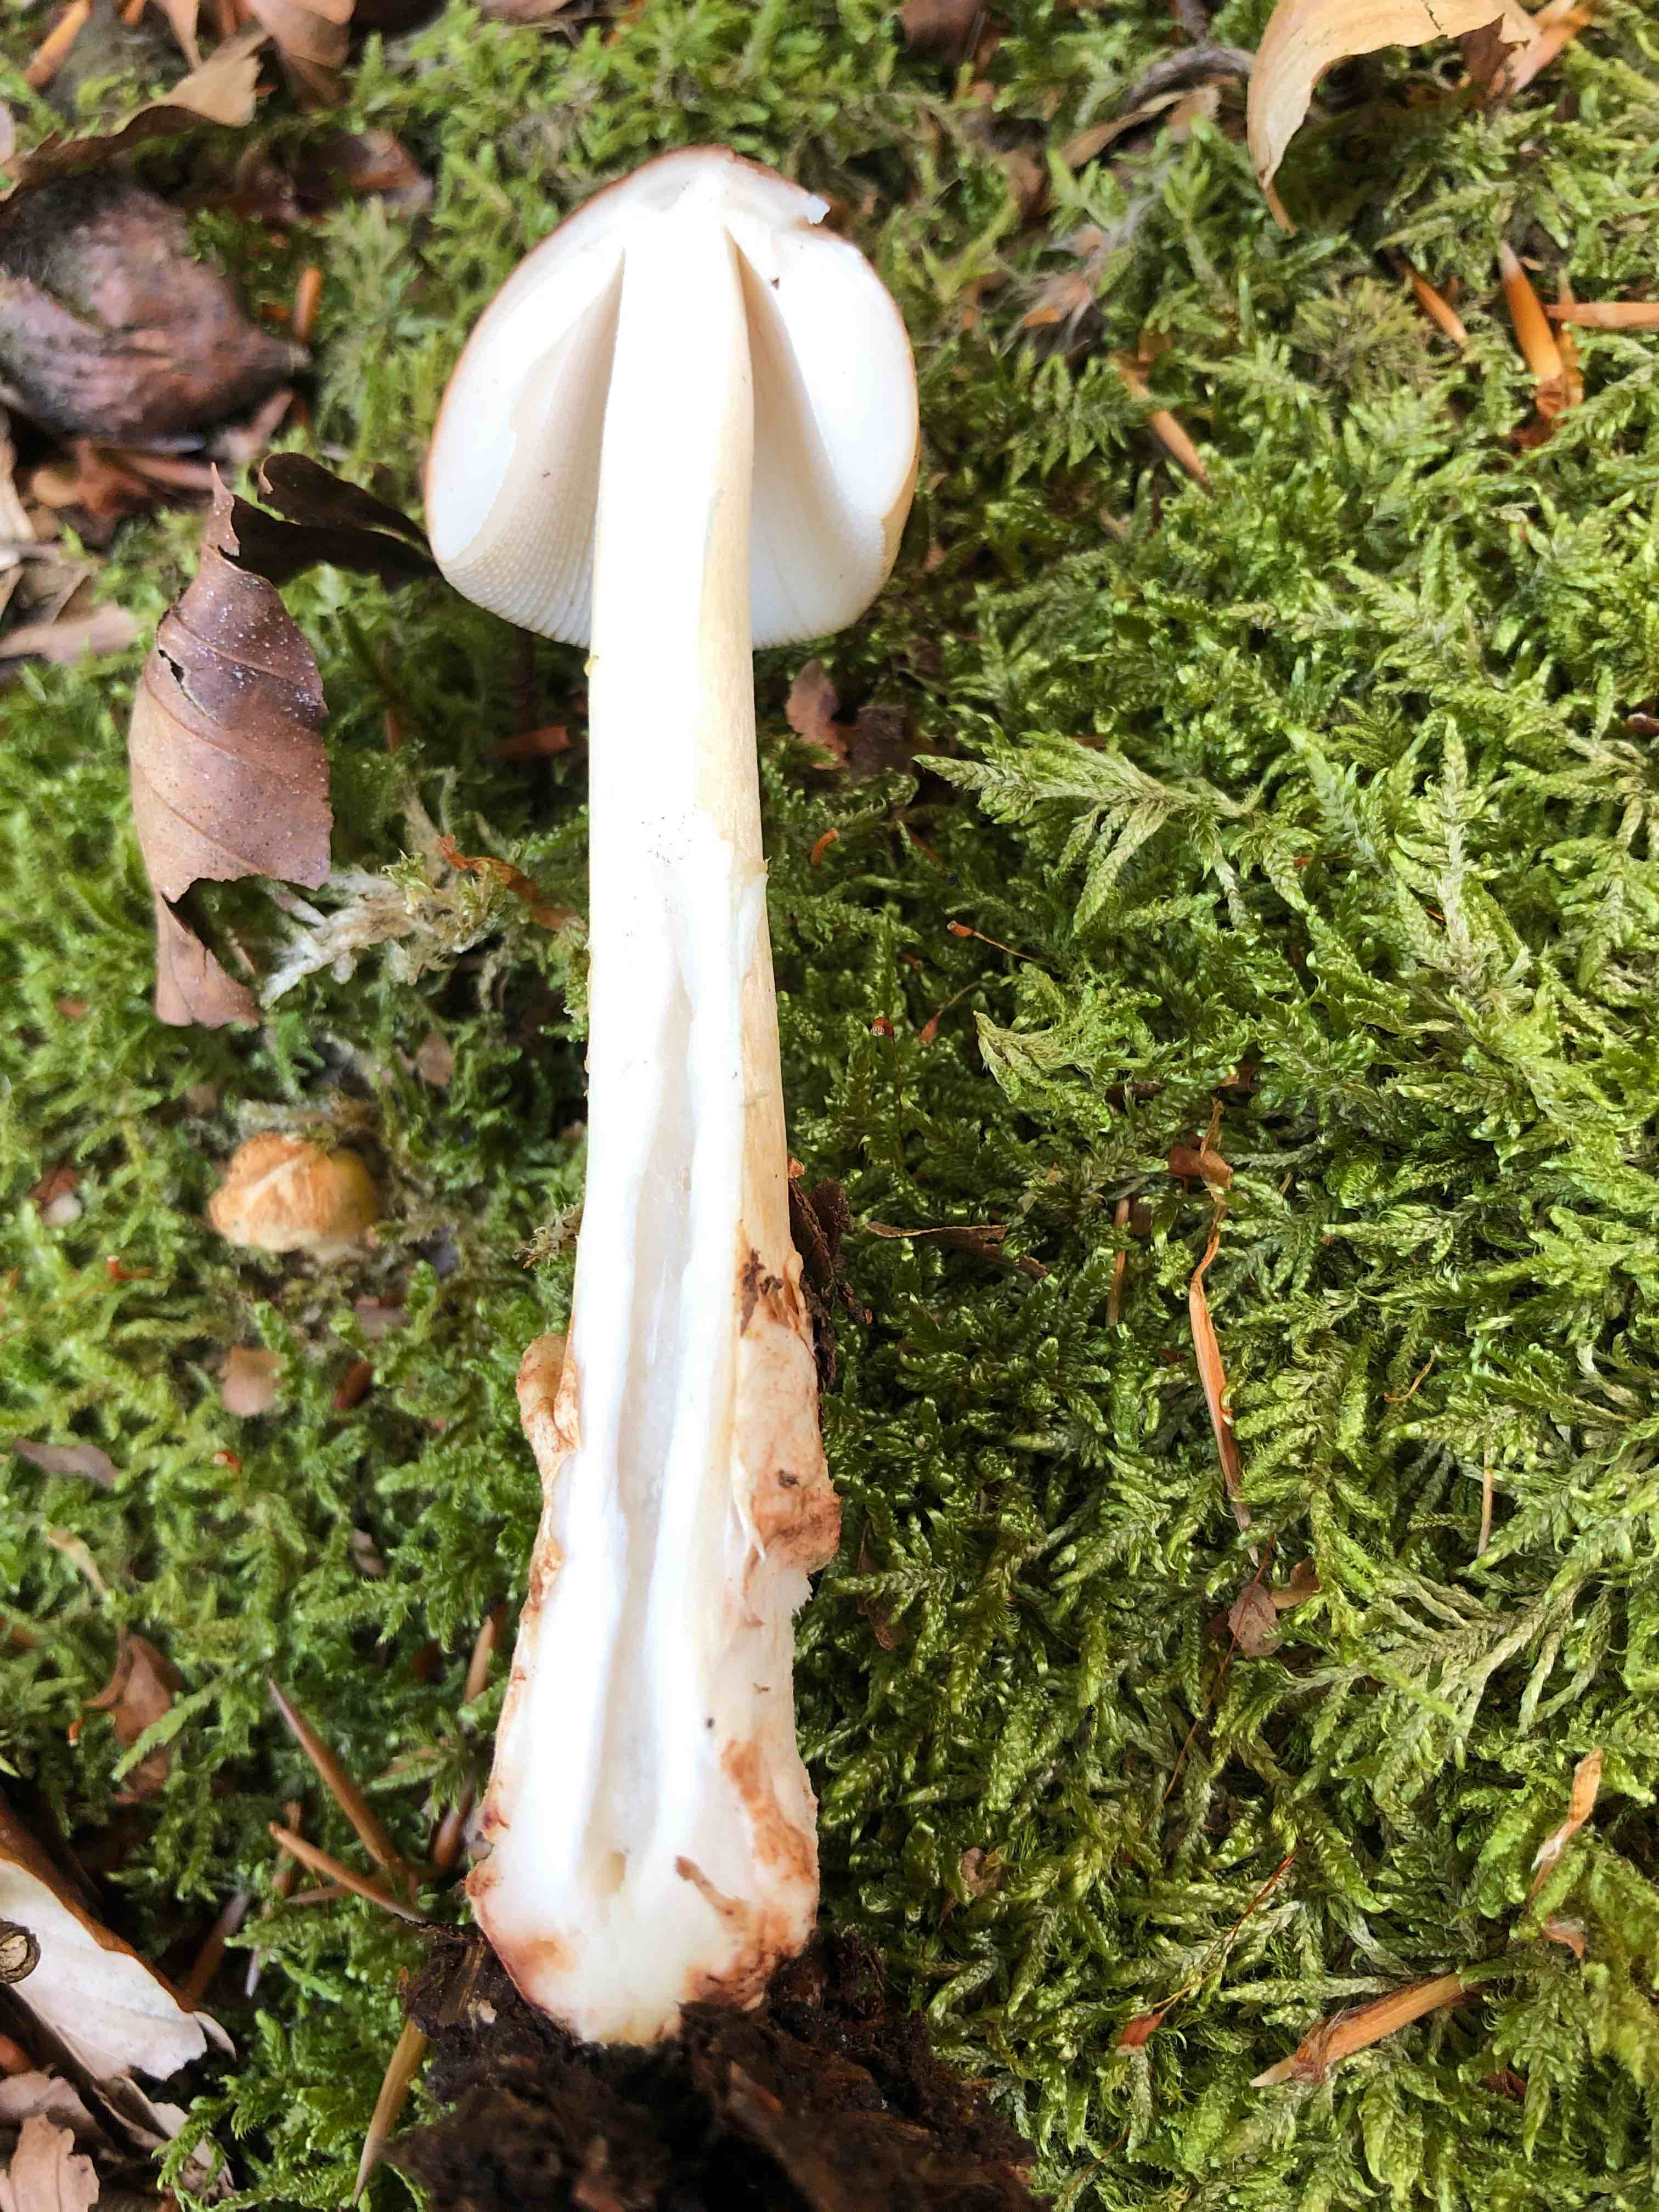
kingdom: Fungi
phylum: Basidiomycota
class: Agaricomycetes
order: Agaricales
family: Amanitaceae
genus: Amanita
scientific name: Amanita
